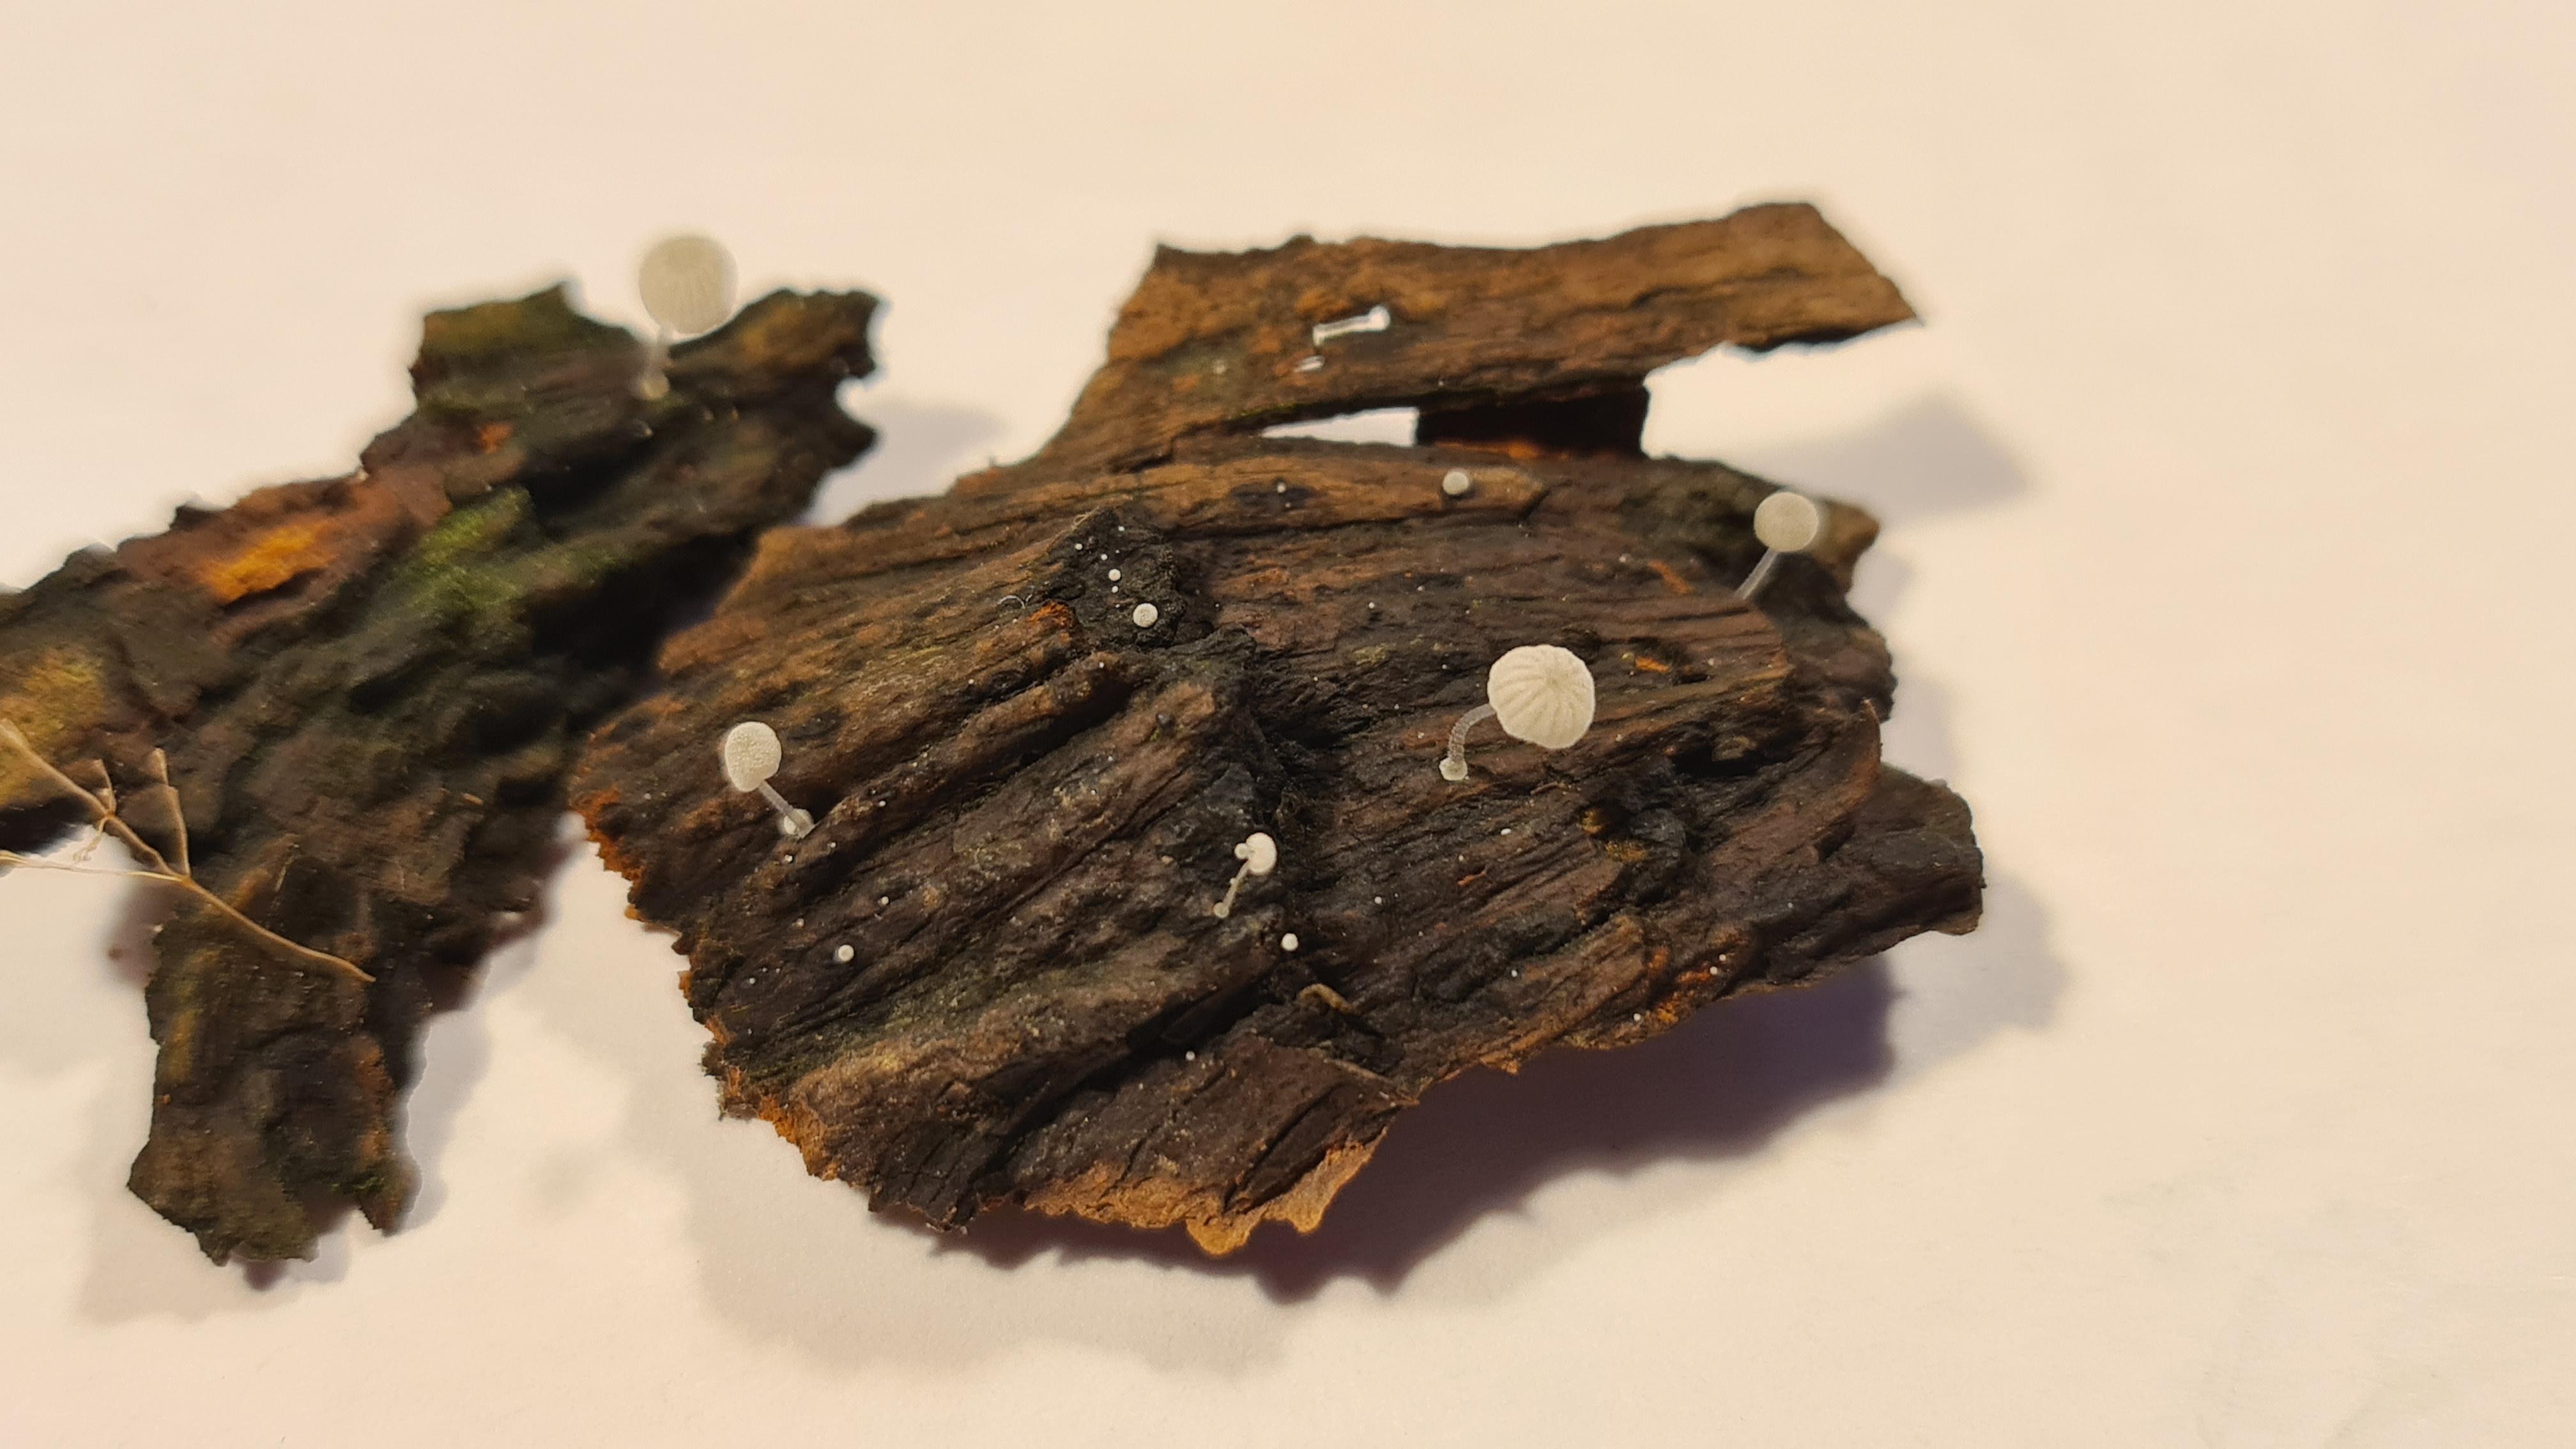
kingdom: Fungi
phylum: Basidiomycota
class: Agaricomycetes
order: Agaricales
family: Mycenaceae
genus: Mycena
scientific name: Mycena tenerrima
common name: pudret huesvamp
